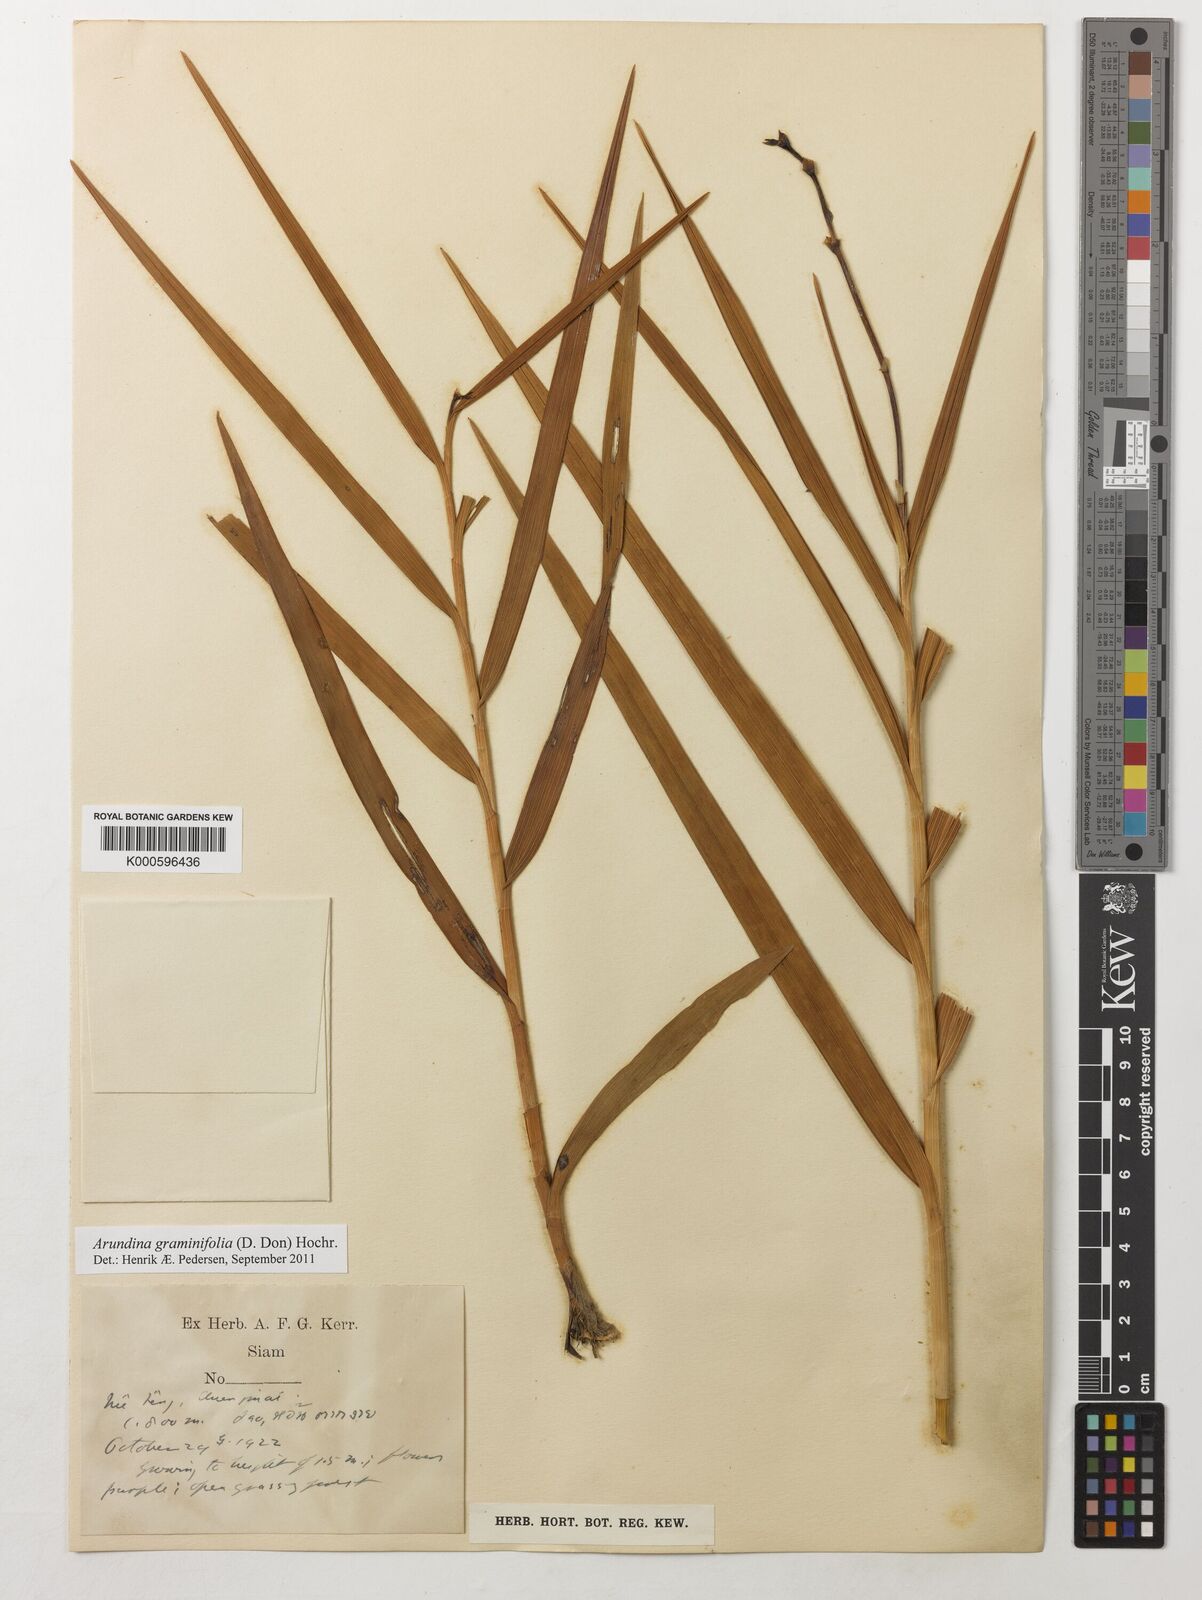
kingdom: Plantae
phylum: Tracheophyta
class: Liliopsida
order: Asparagales
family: Orchidaceae
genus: Arundina
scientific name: Arundina graminifolia
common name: Bamboo orchid
